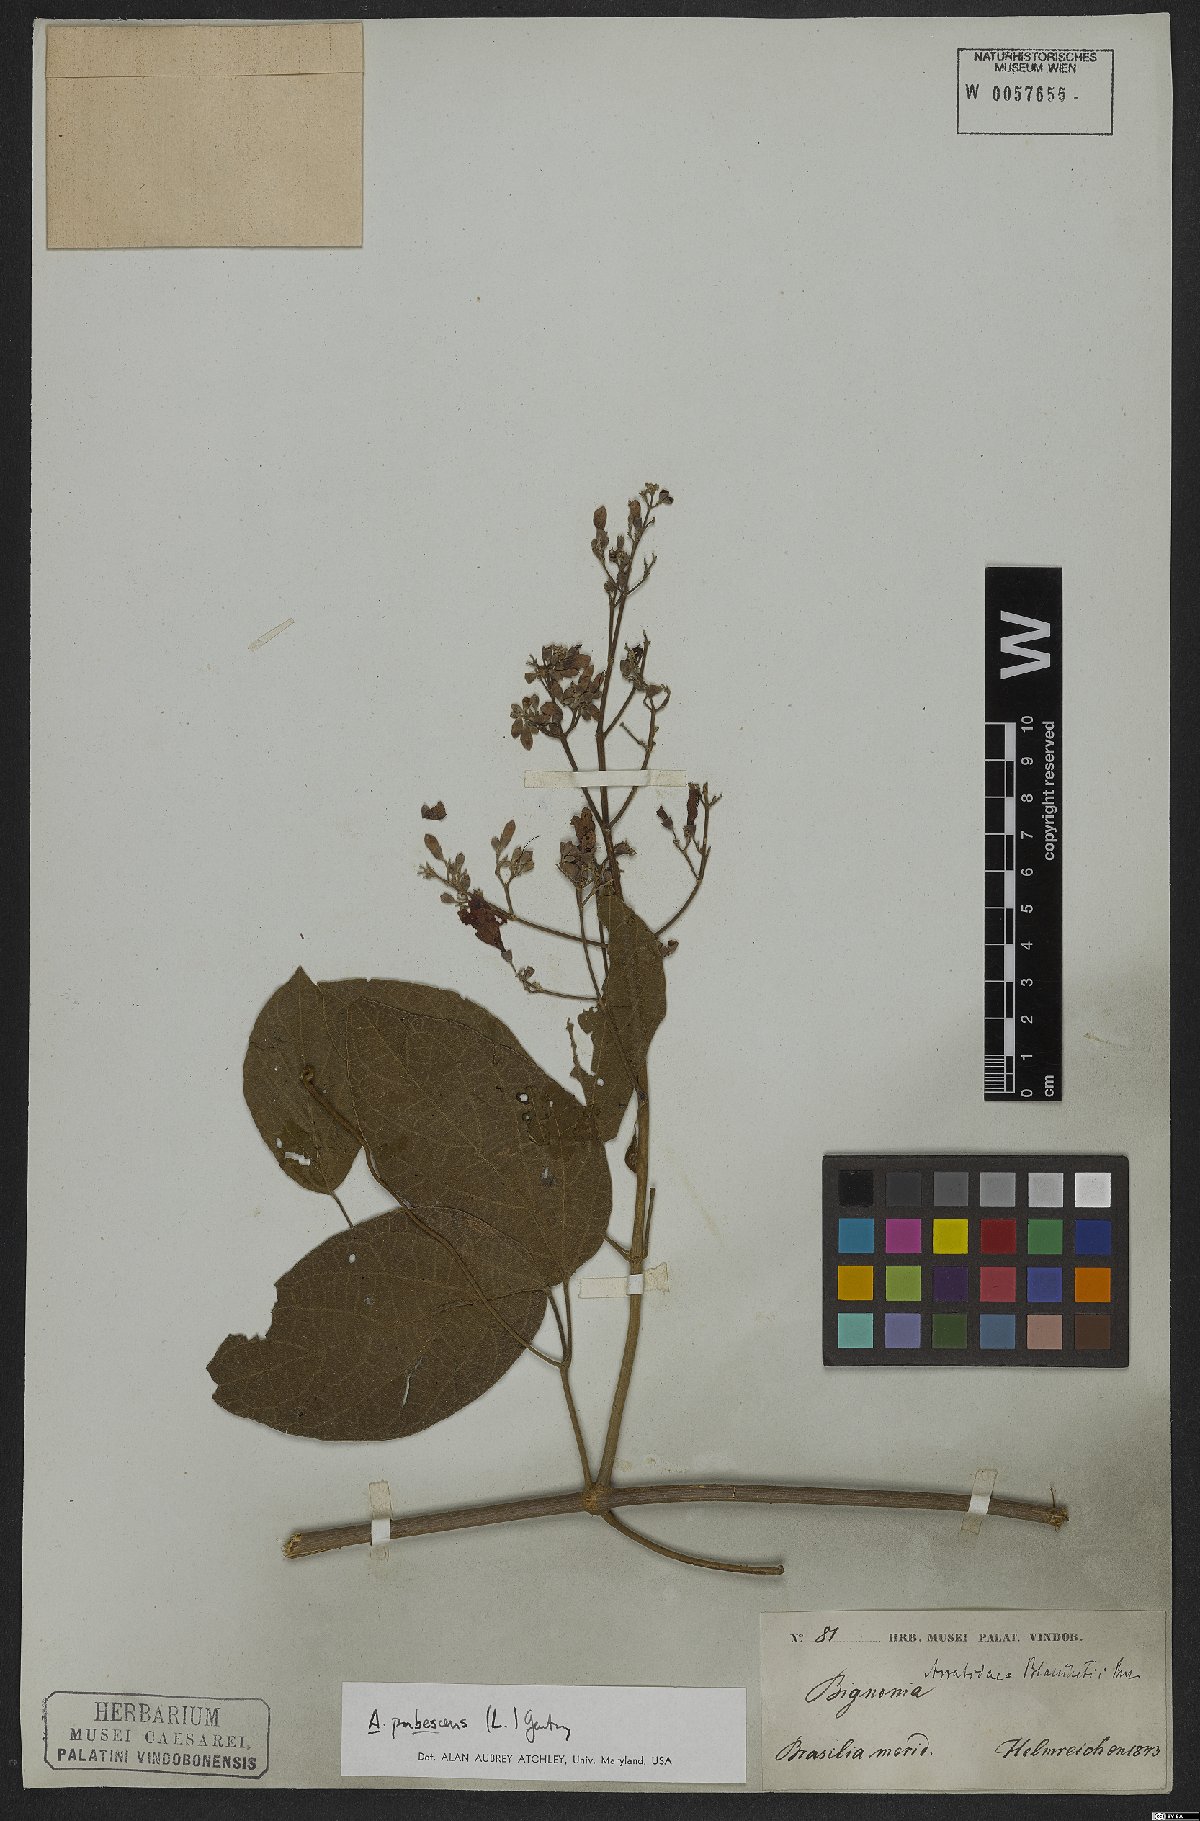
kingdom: Plantae
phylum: Tracheophyta
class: Magnoliopsida
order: Lamiales
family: Bignoniaceae
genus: Fridericia
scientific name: Fridericia pubescens
